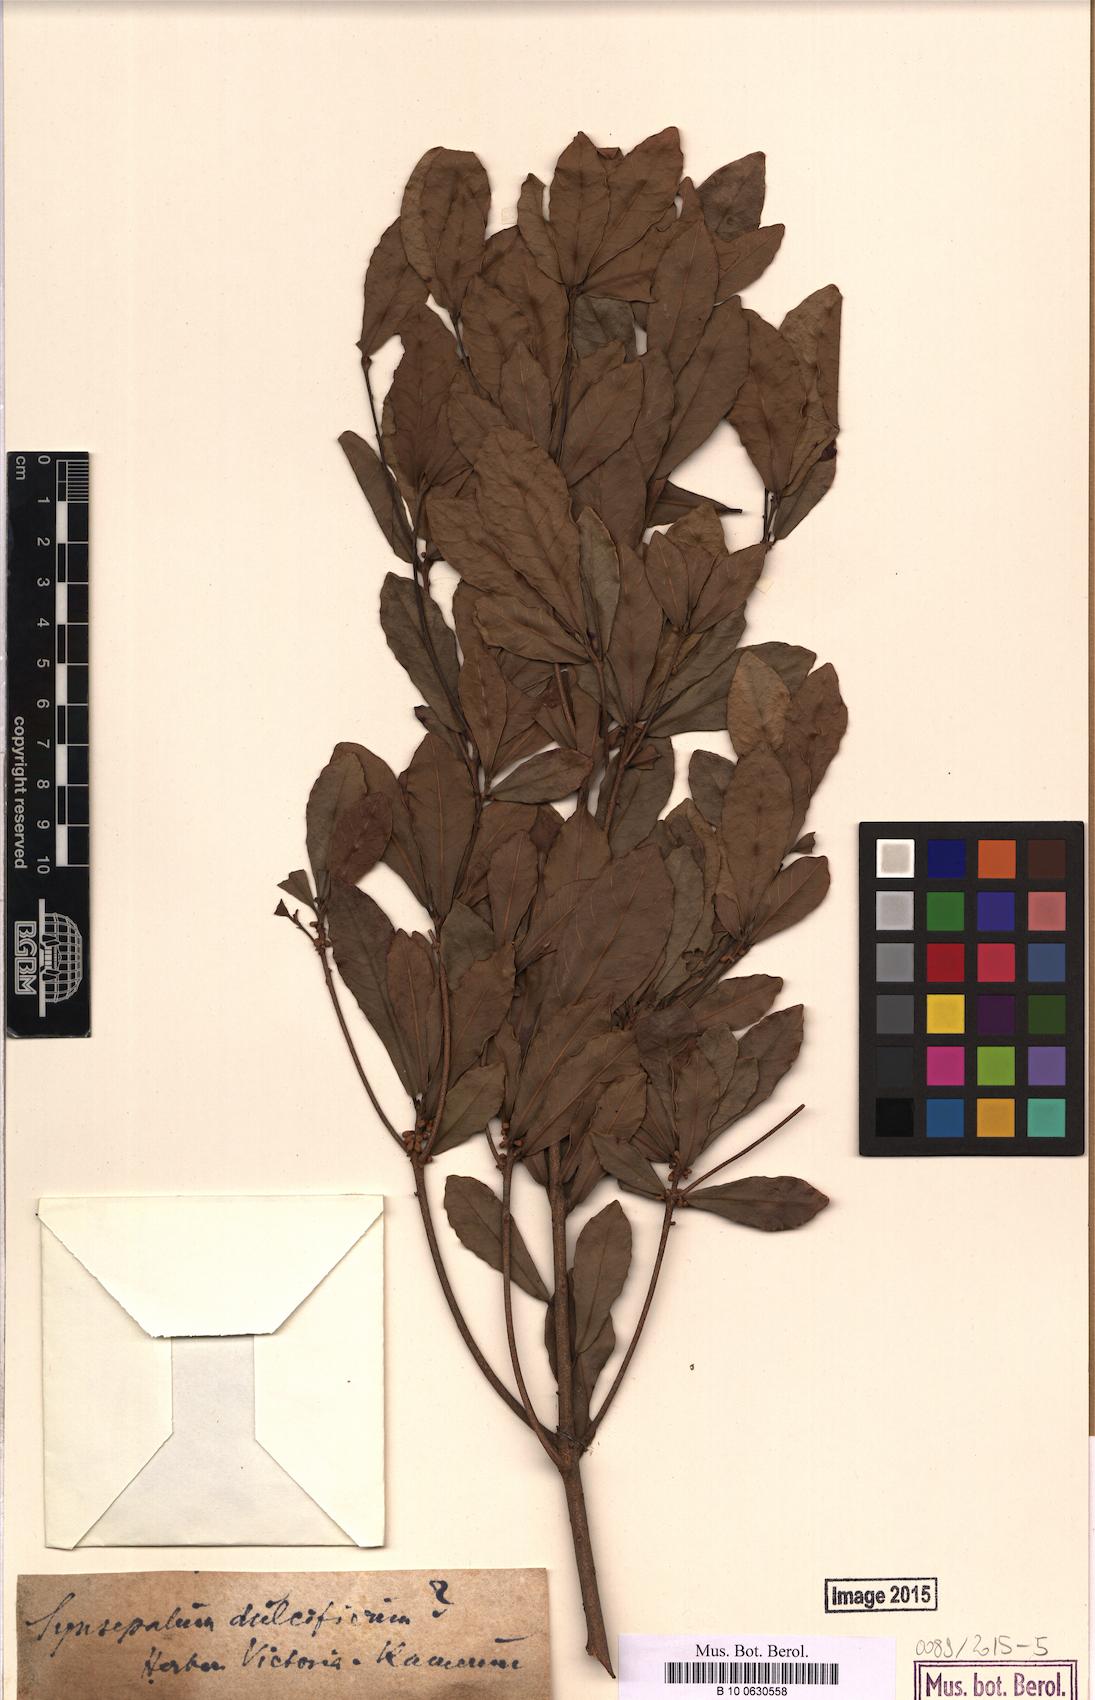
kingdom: Plantae
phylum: Tracheophyta
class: Magnoliopsida
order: Ericales
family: Sapotaceae
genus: Synsepalum
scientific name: Synsepalum dulcificum
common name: Miracle-fruit
